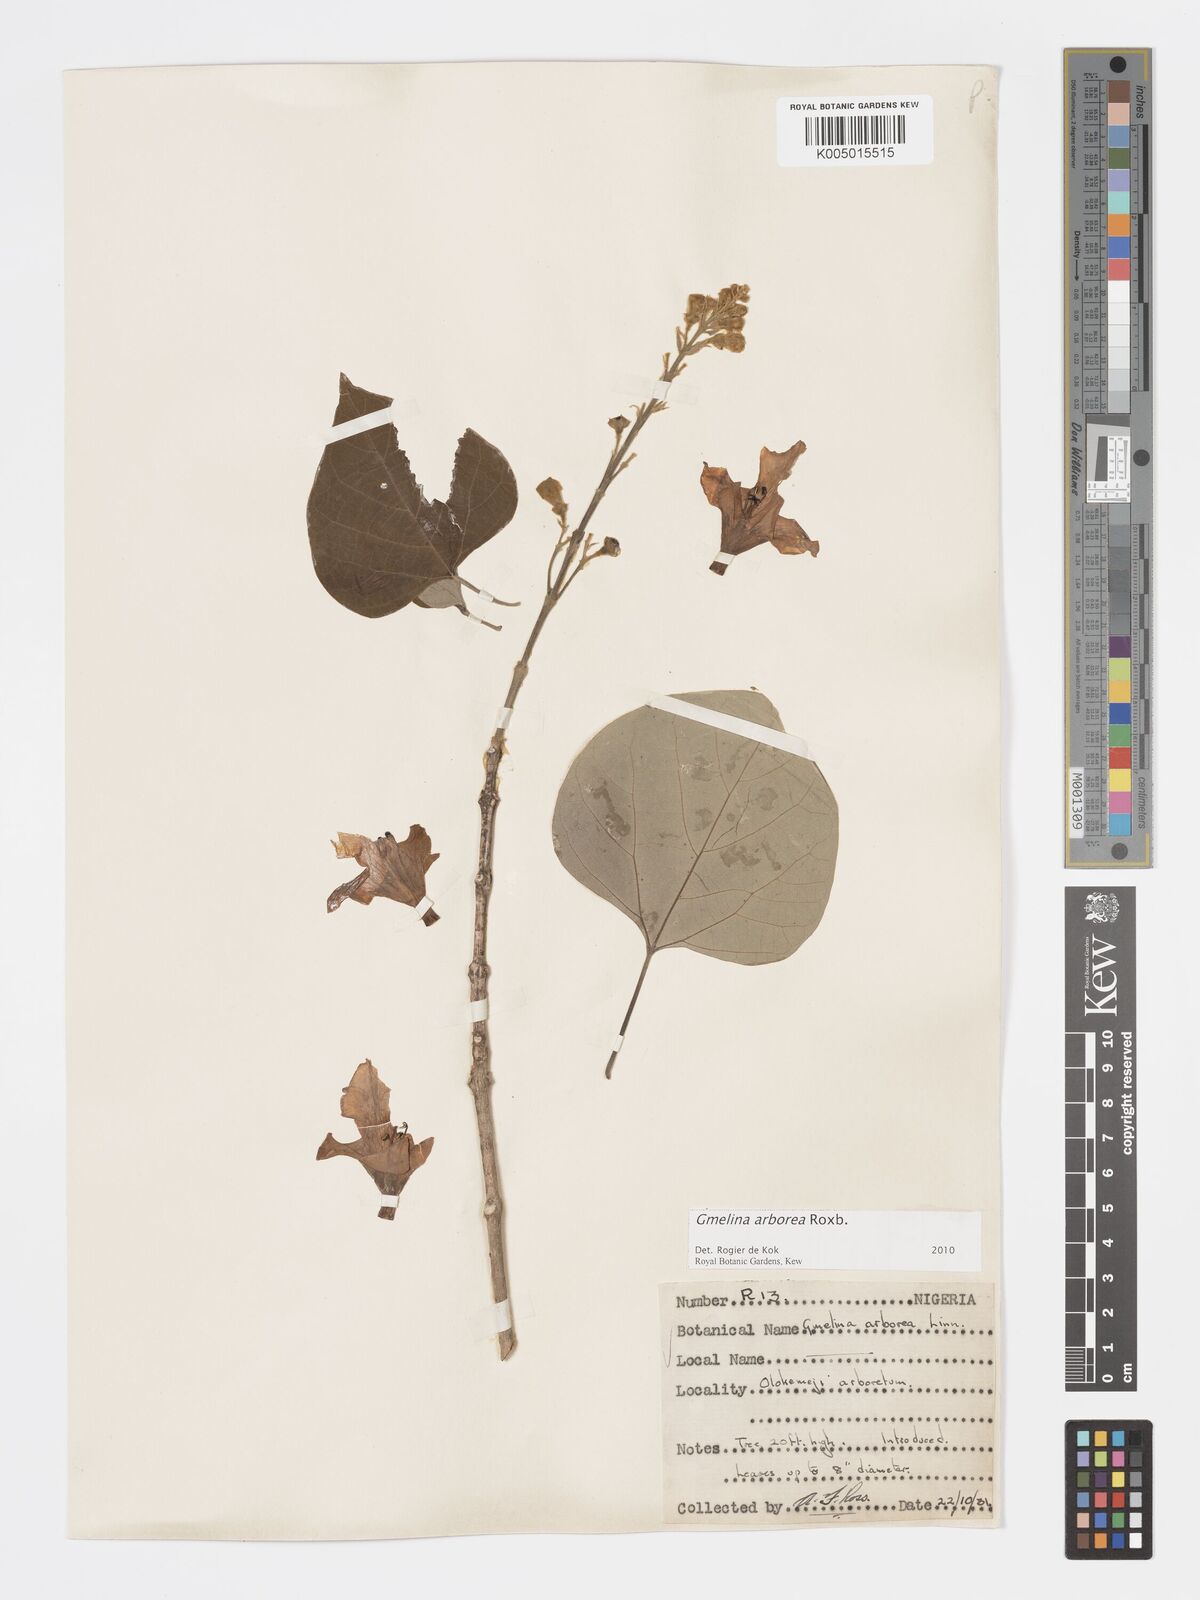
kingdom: Plantae
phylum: Tracheophyta
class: Magnoliopsida
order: Lamiales
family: Lamiaceae
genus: Gmelina
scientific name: Gmelina arborea
